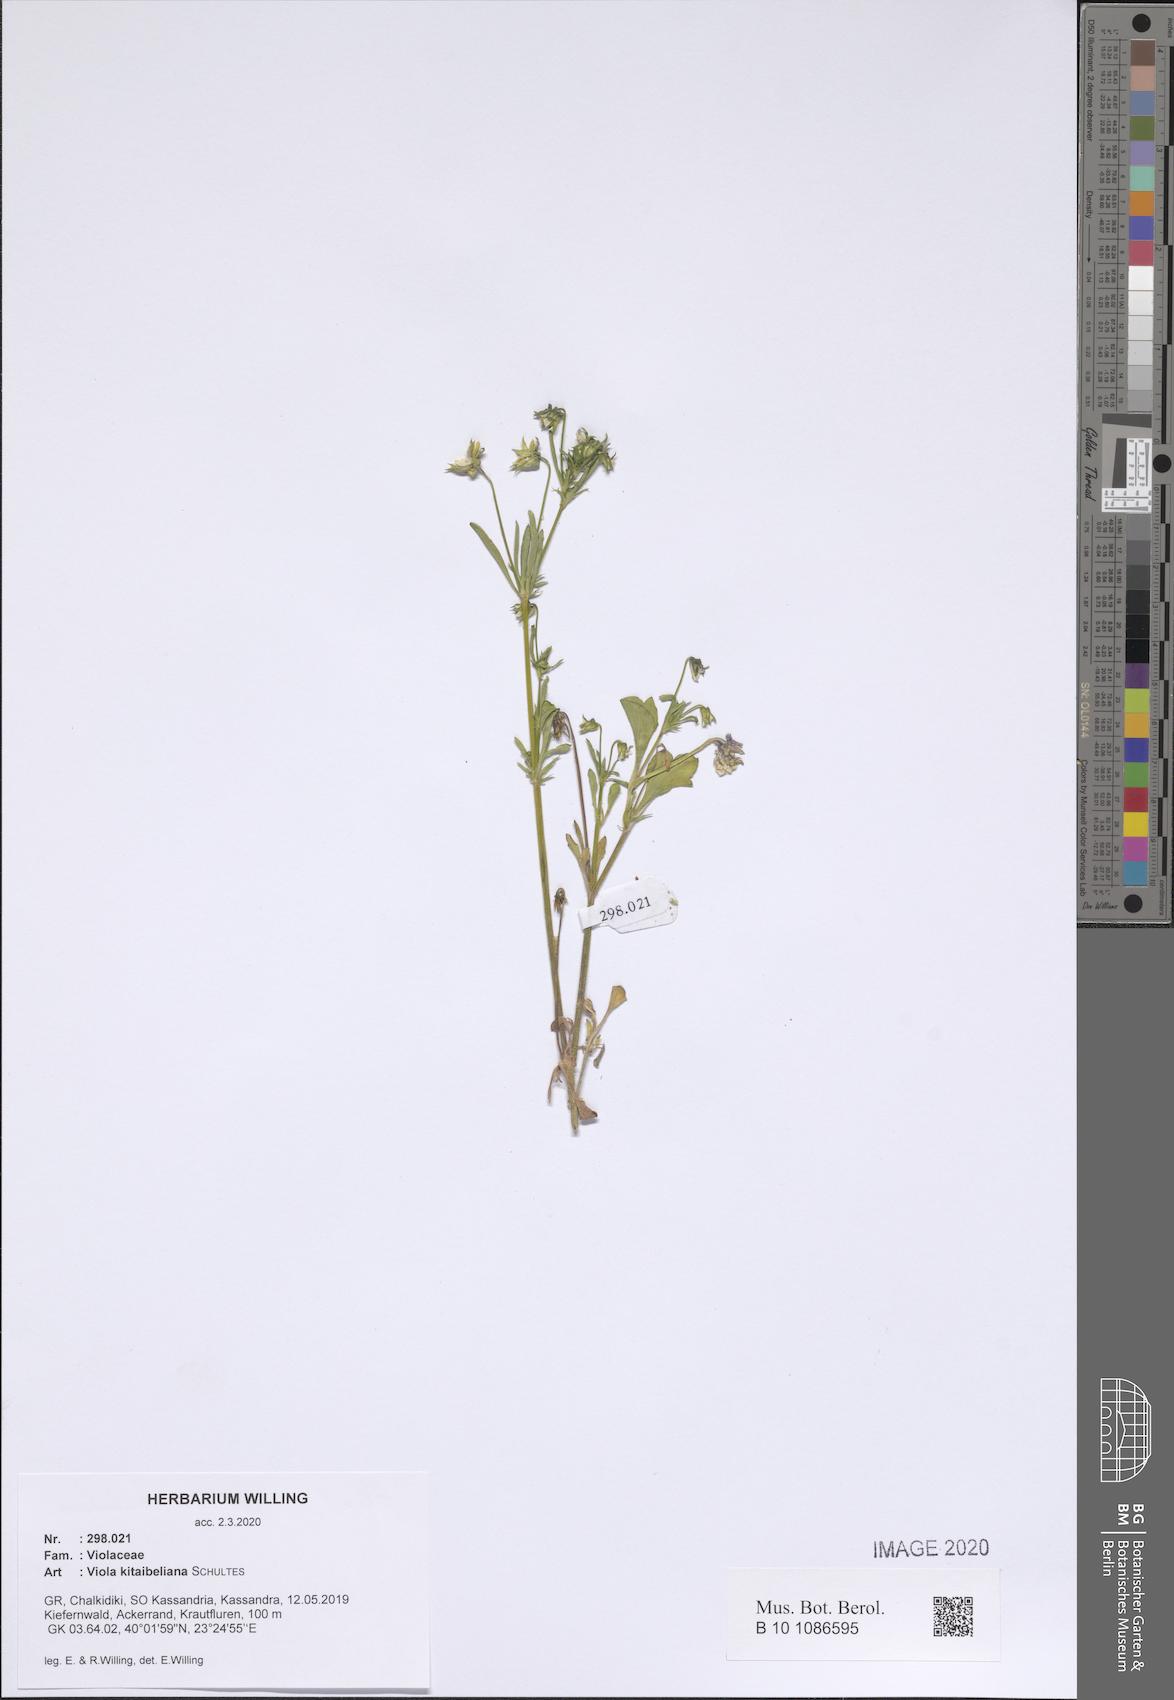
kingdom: Plantae
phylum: Tracheophyta
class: Magnoliopsida
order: Malpighiales
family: Violaceae
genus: Viola
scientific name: Viola kitaibeliana
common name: Dwarf pansy
